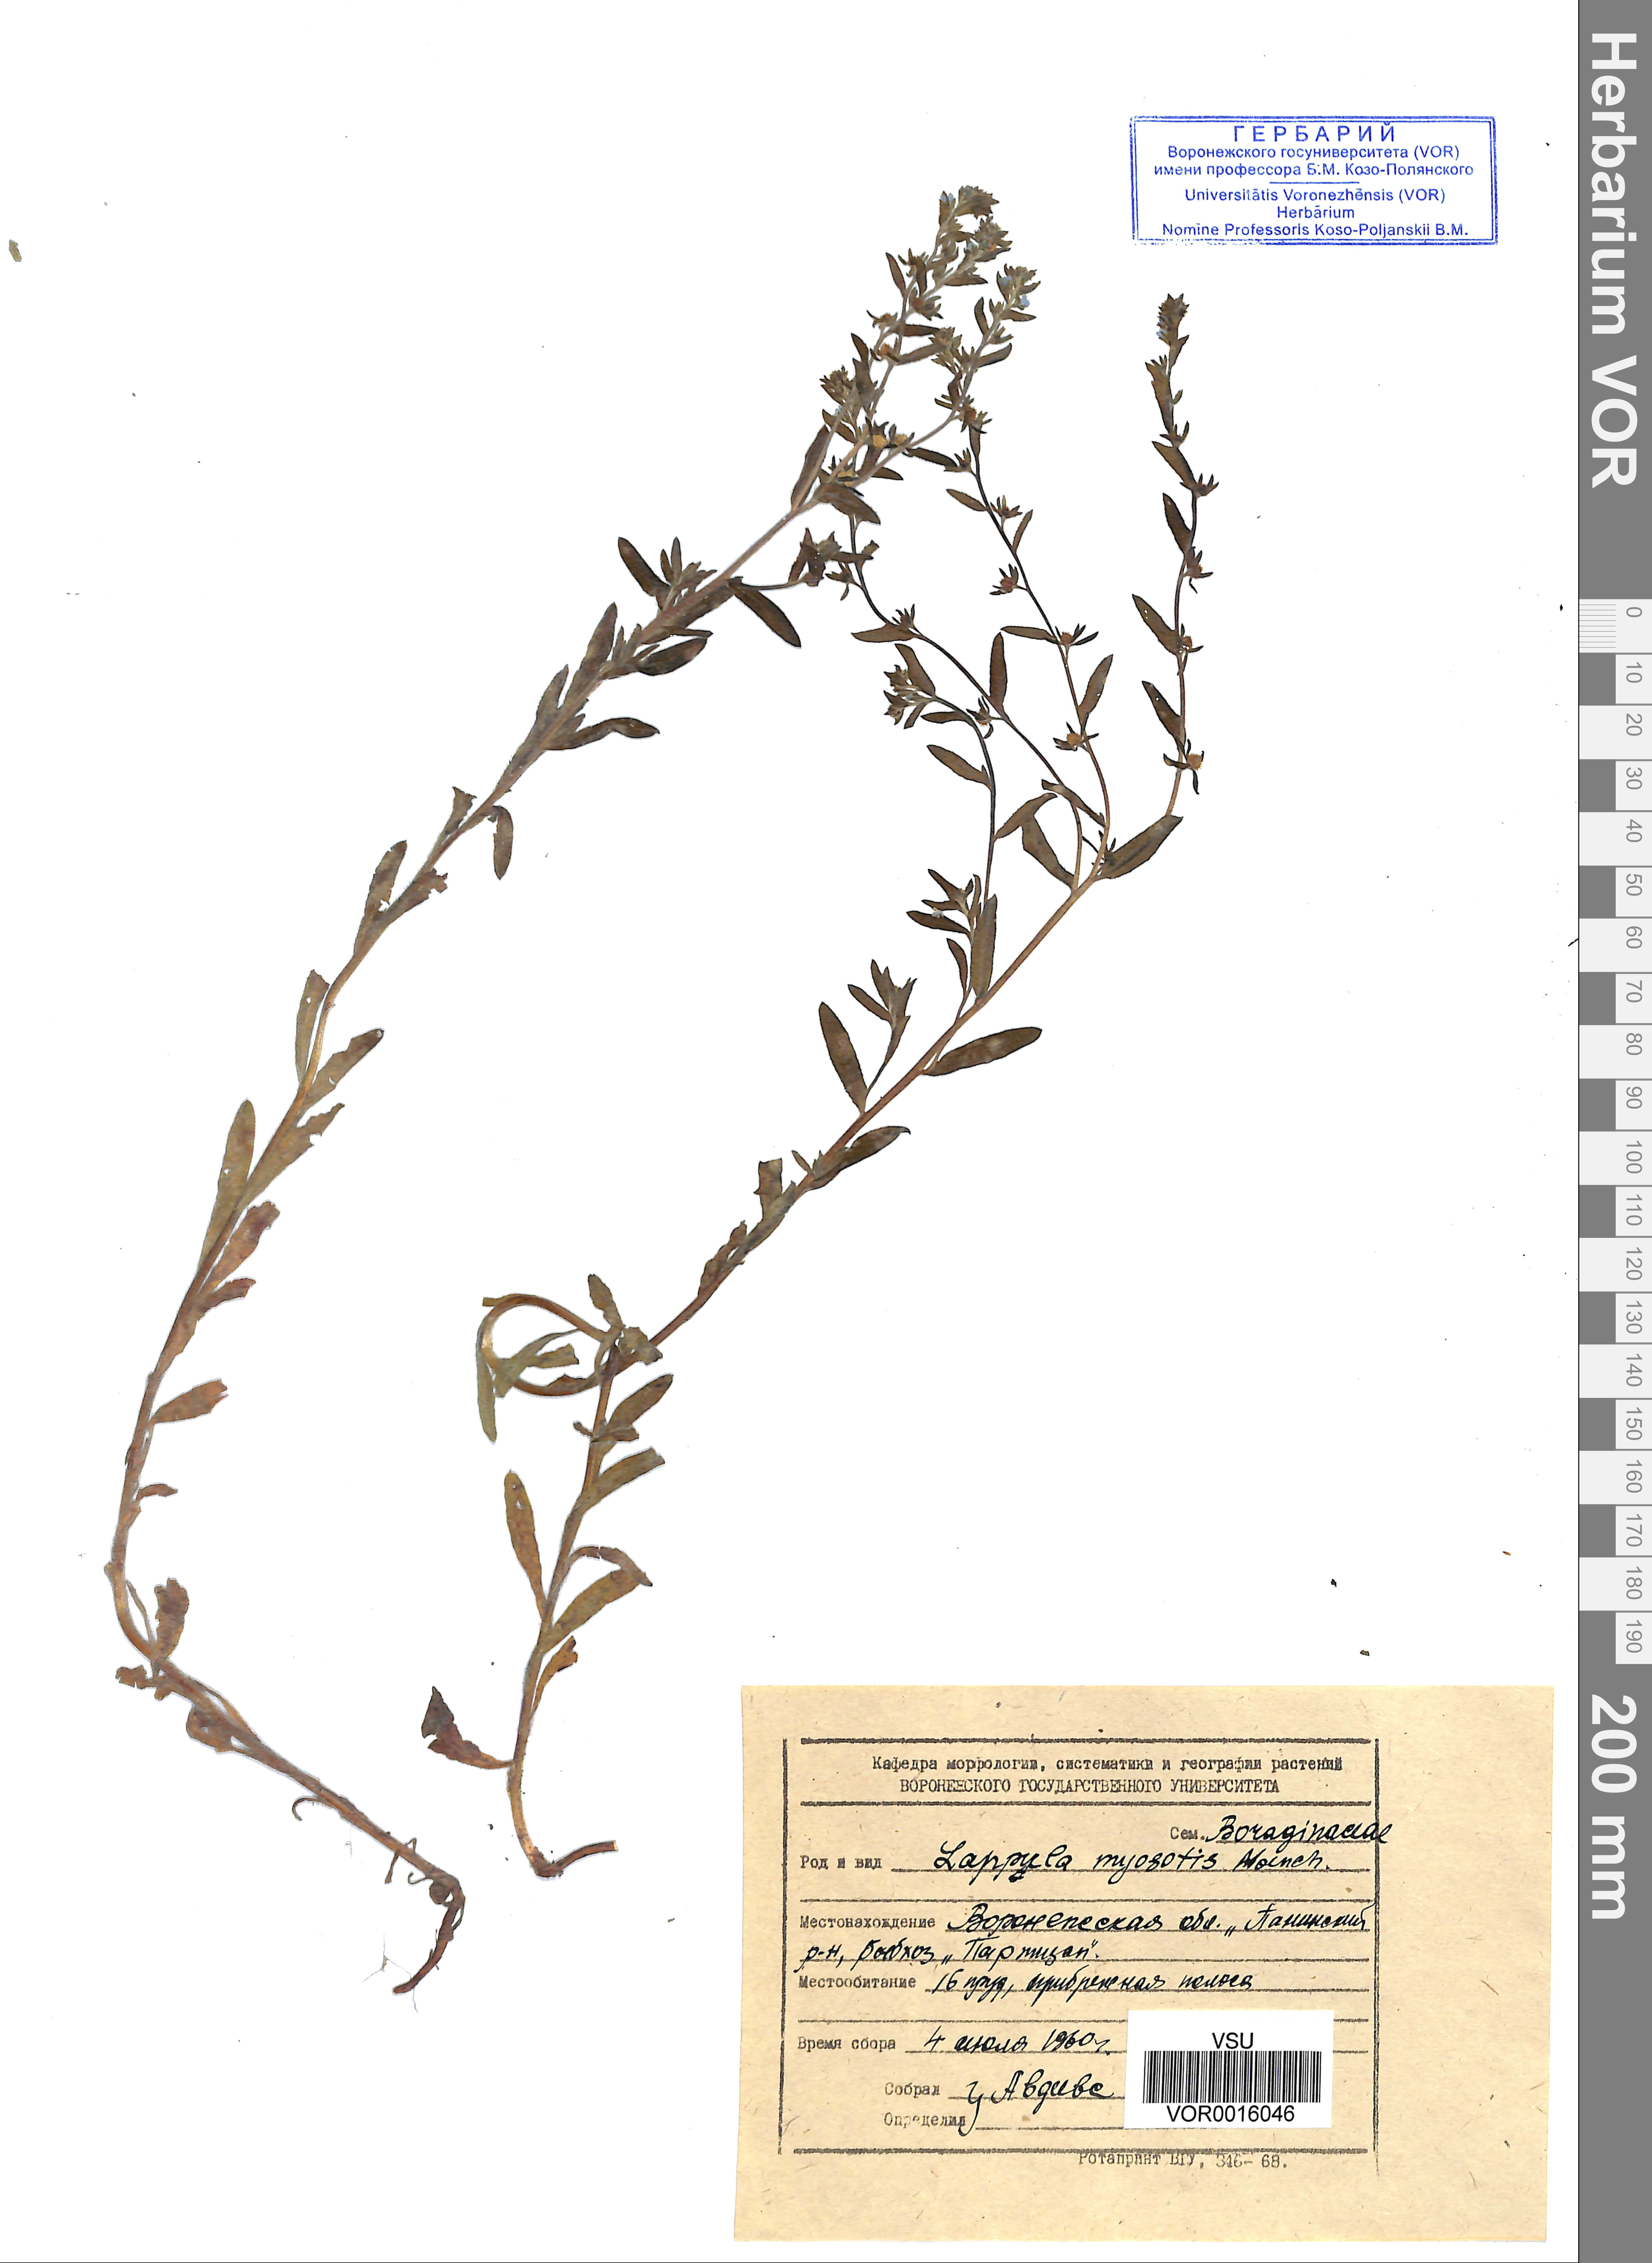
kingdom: Plantae
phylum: Tracheophyta
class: Magnoliopsida
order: Boraginales
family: Boraginaceae
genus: Lappula
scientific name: Lappula squarrosa
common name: European stickseed
